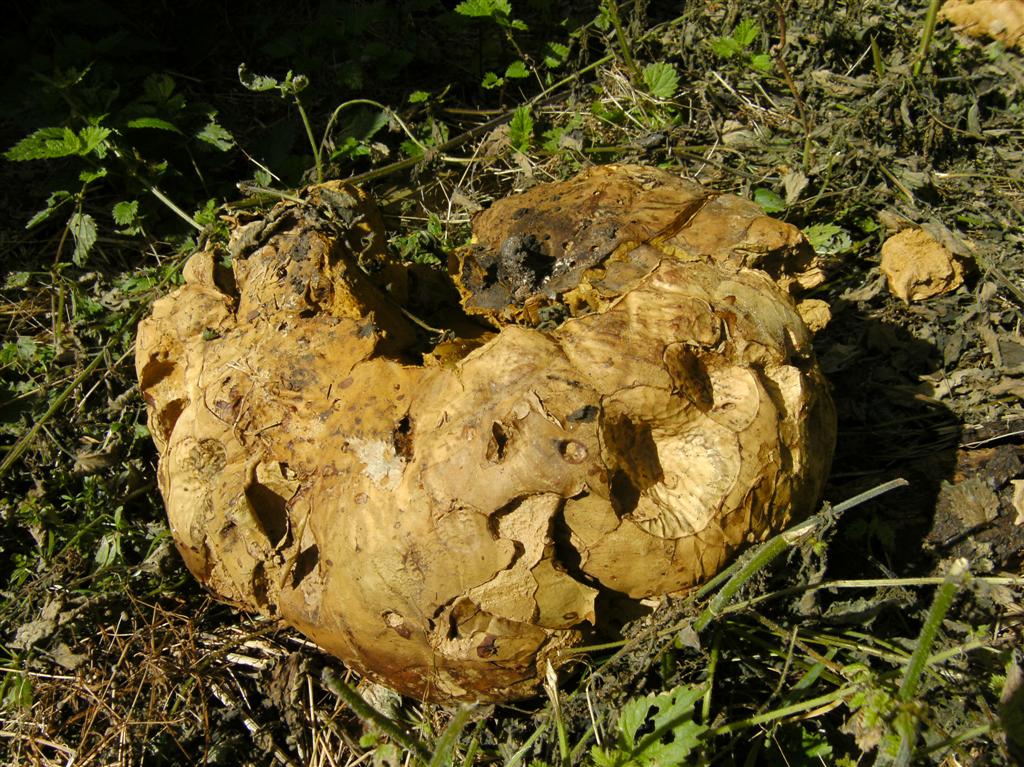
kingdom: Fungi
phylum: Basidiomycota
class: Agaricomycetes
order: Agaricales
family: Lycoperdaceae
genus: Calvatia
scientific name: Calvatia gigantea
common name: kæmpestøvbold
